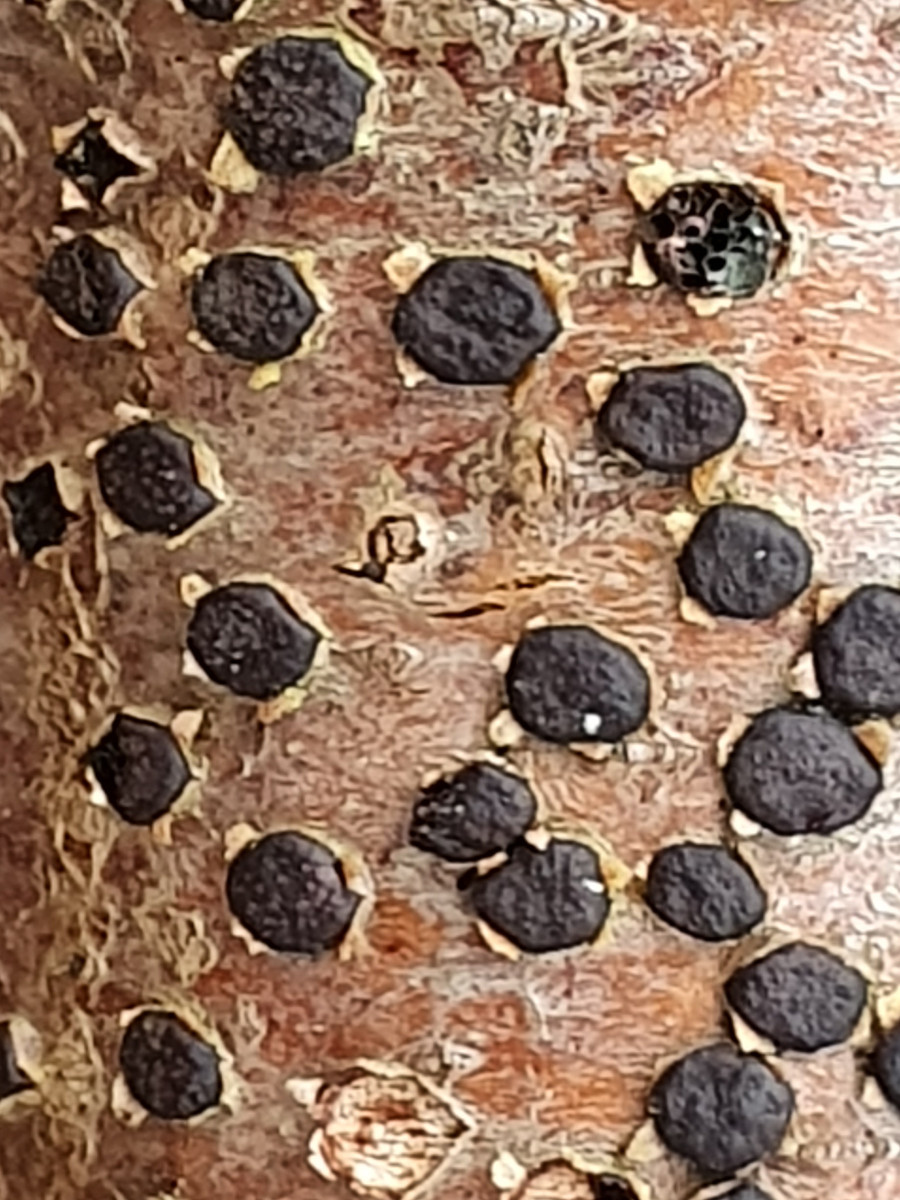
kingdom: Fungi
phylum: Ascomycota
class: Sordariomycetes
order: Xylariales
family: Diatrypaceae
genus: Diatrype
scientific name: Diatrype disciformis
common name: kant-kulskorpe
